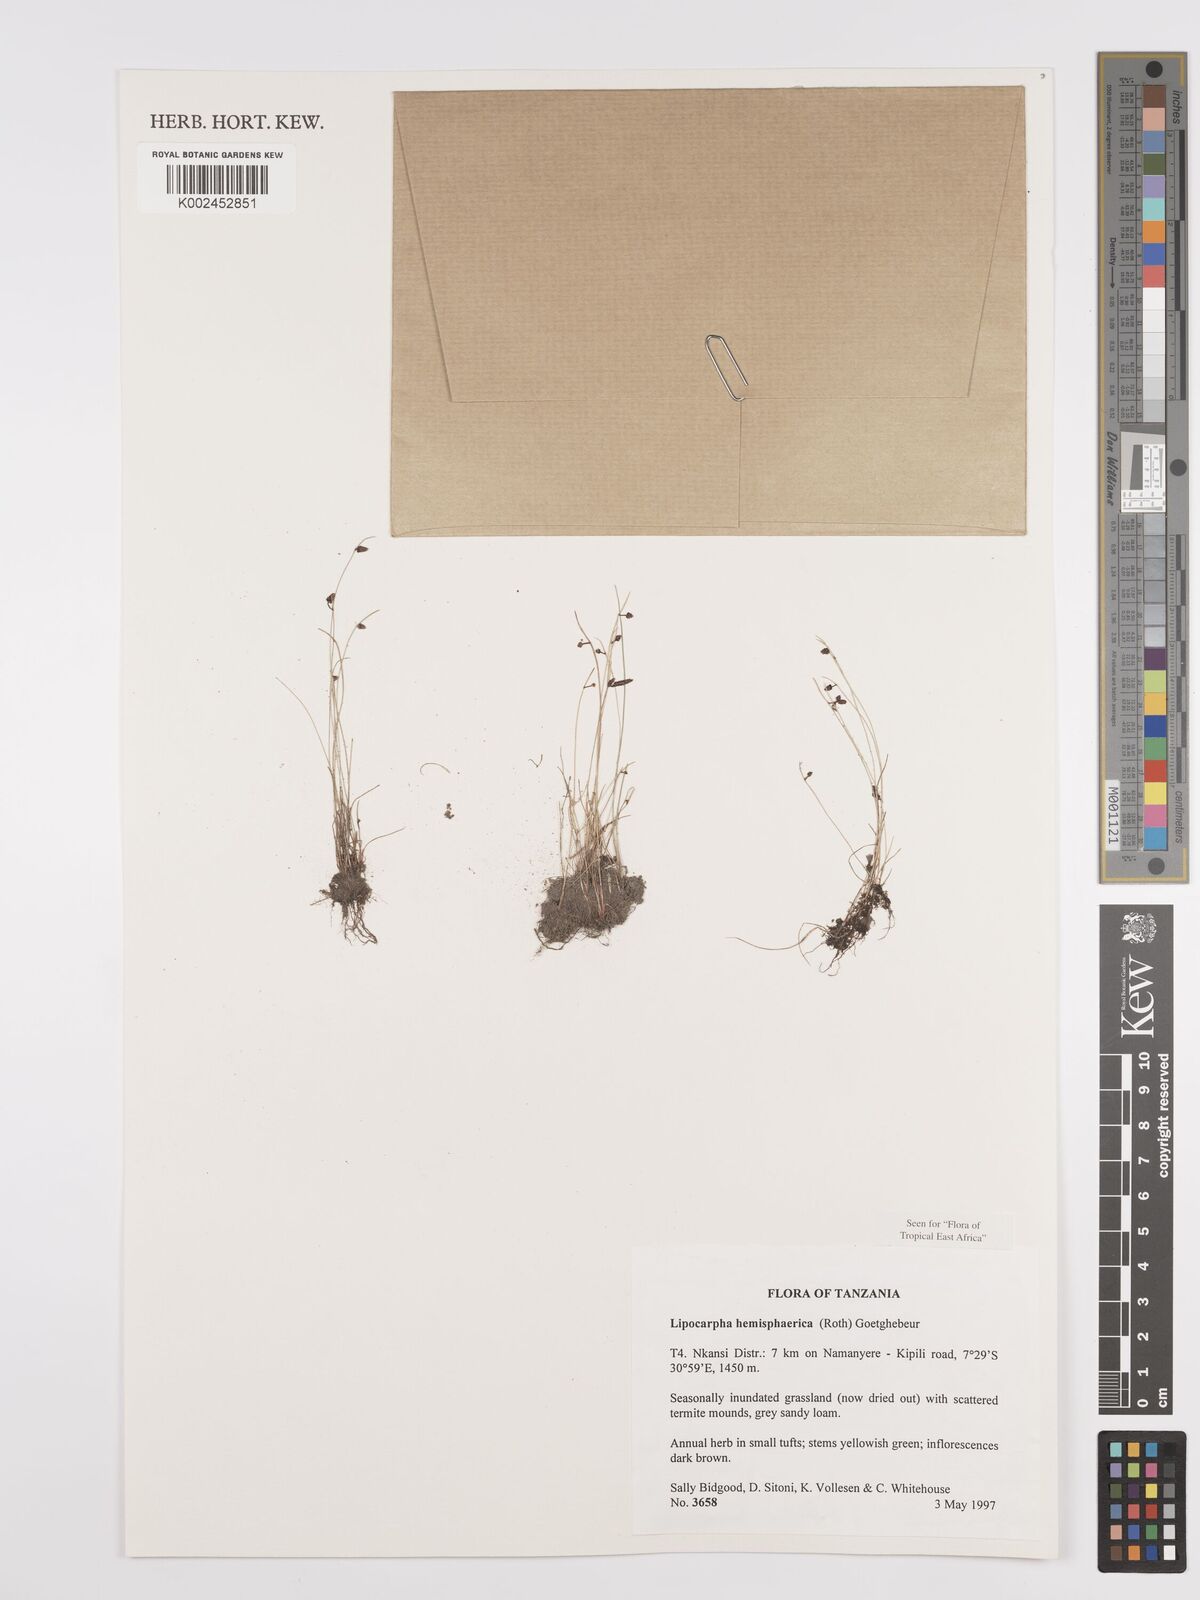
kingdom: Plantae
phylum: Tracheophyta
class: Liliopsida
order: Poales
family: Cyperaceae
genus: Cyperus
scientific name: Cyperus hemisphaericus
